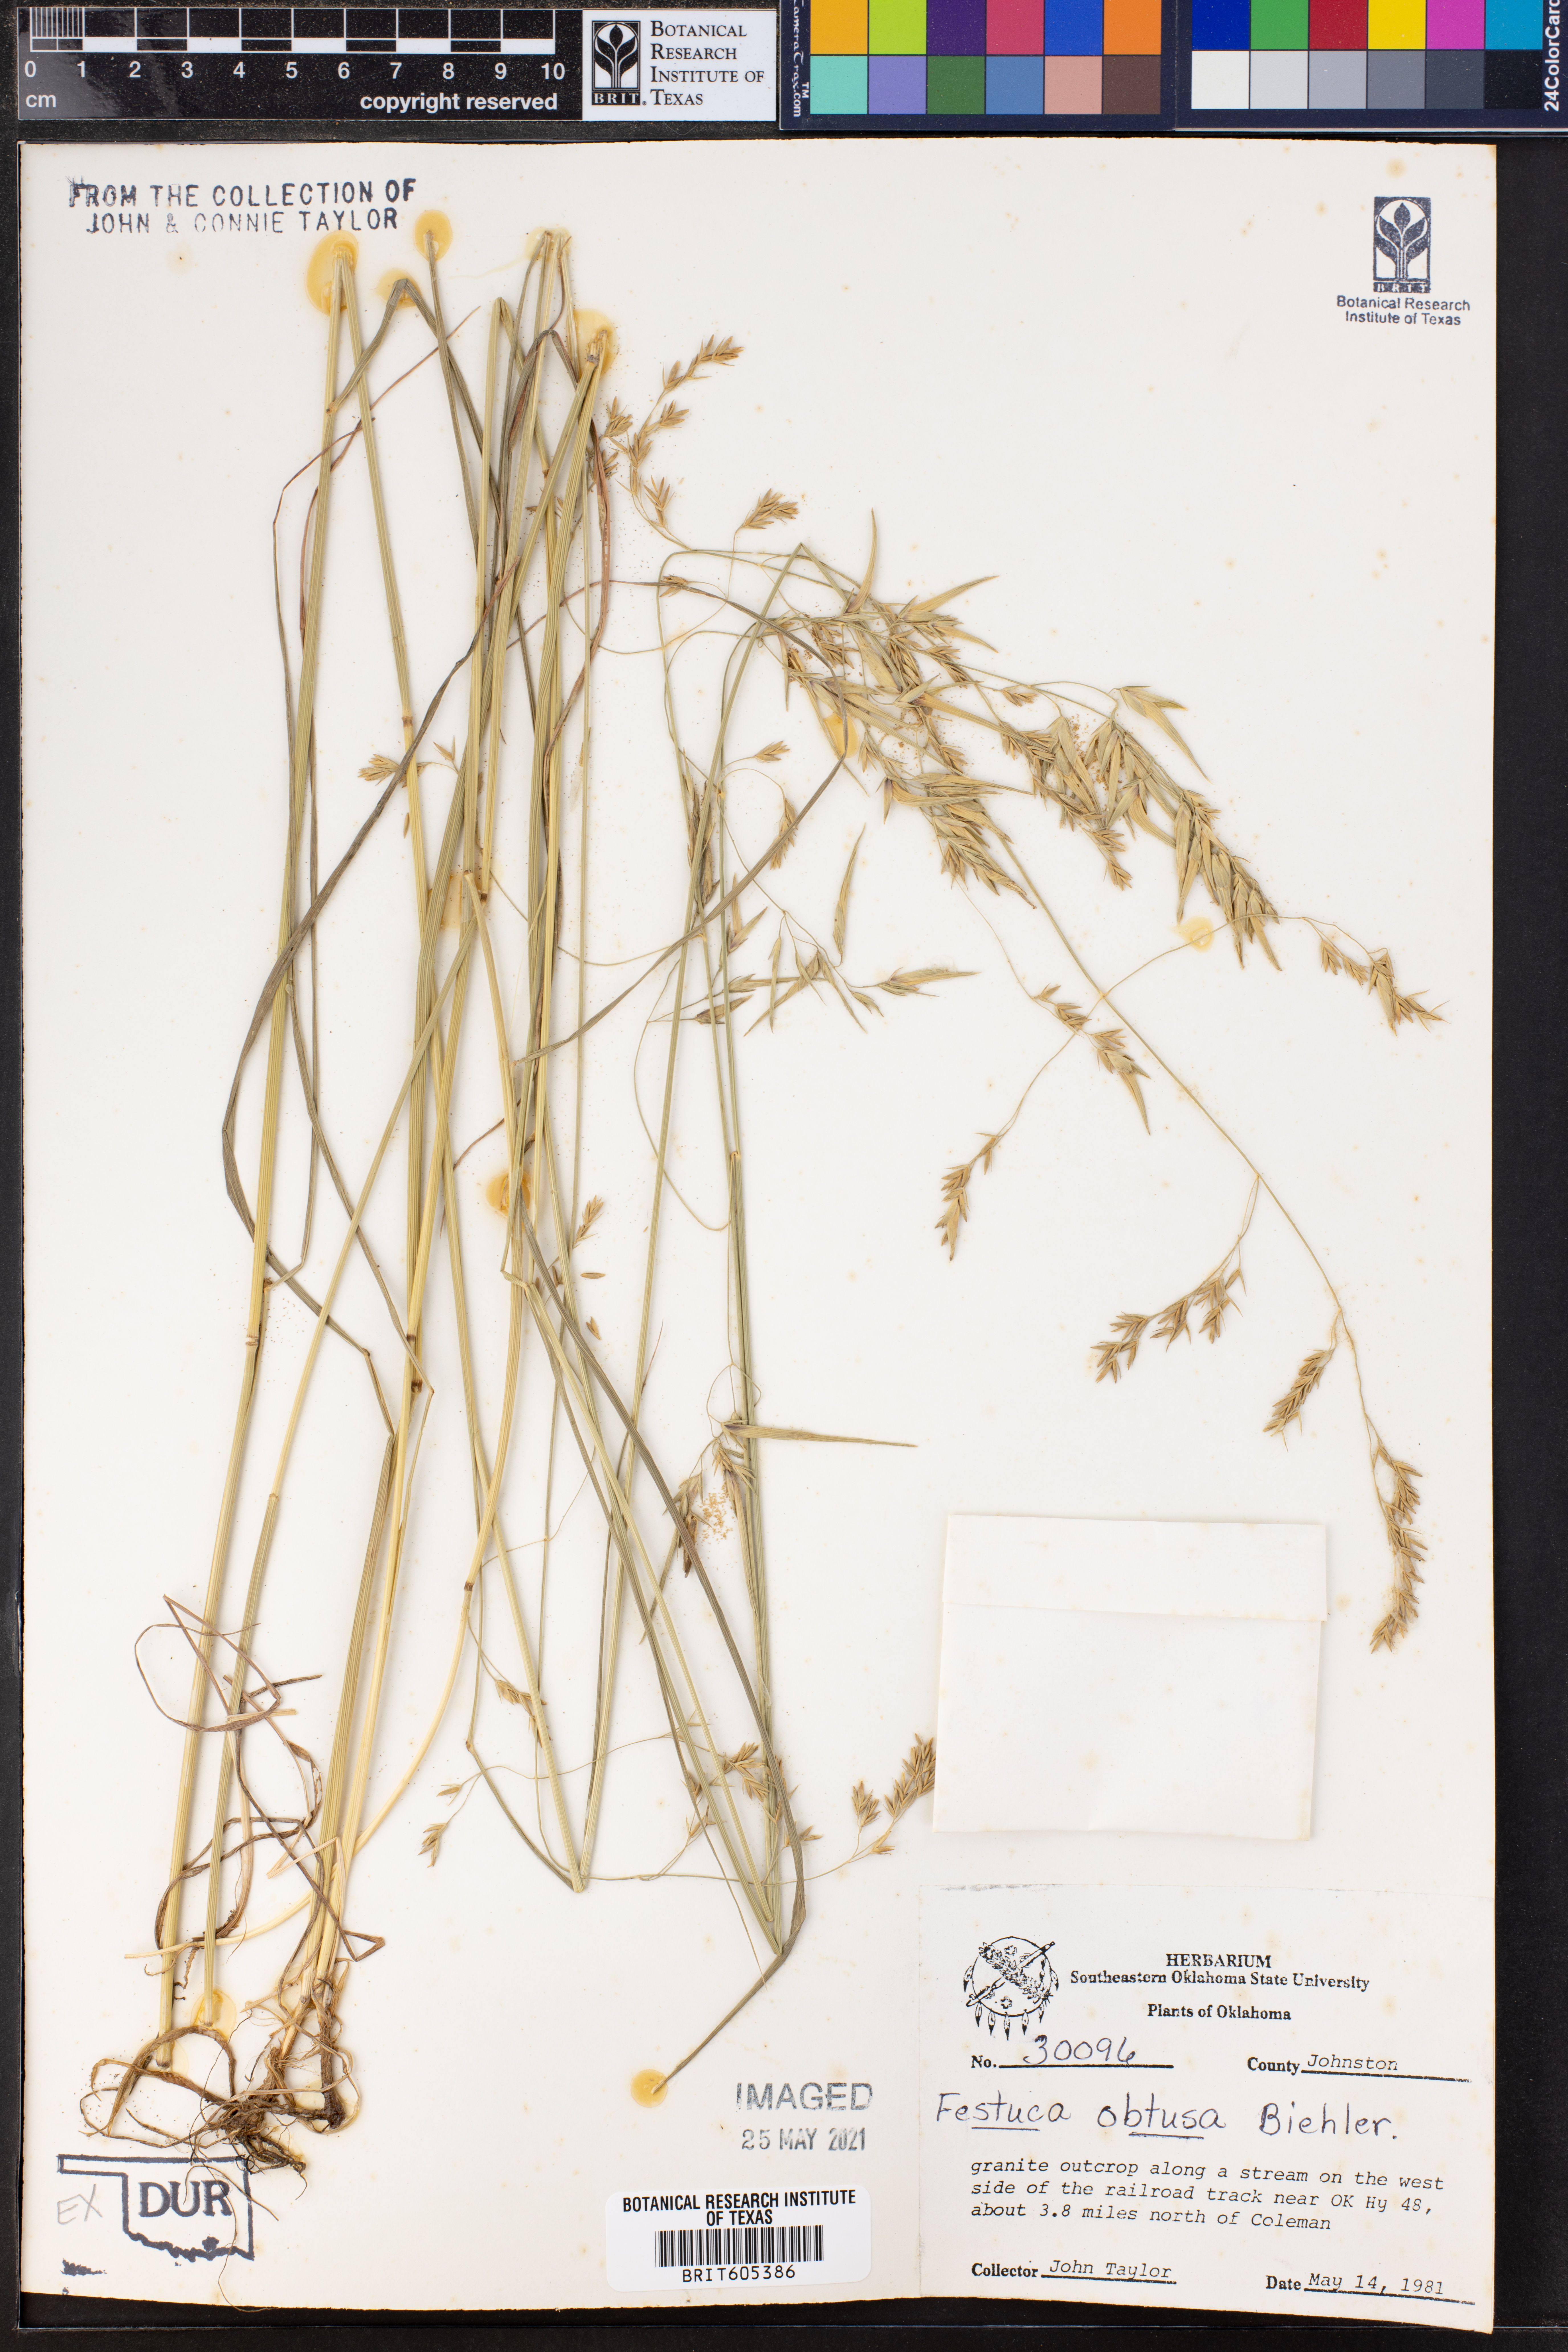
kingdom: Plantae
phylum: Tracheophyta
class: Liliopsida
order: Poales
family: Poaceae
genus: Festuca
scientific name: Festuca subverticillata
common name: Nodding fescue
